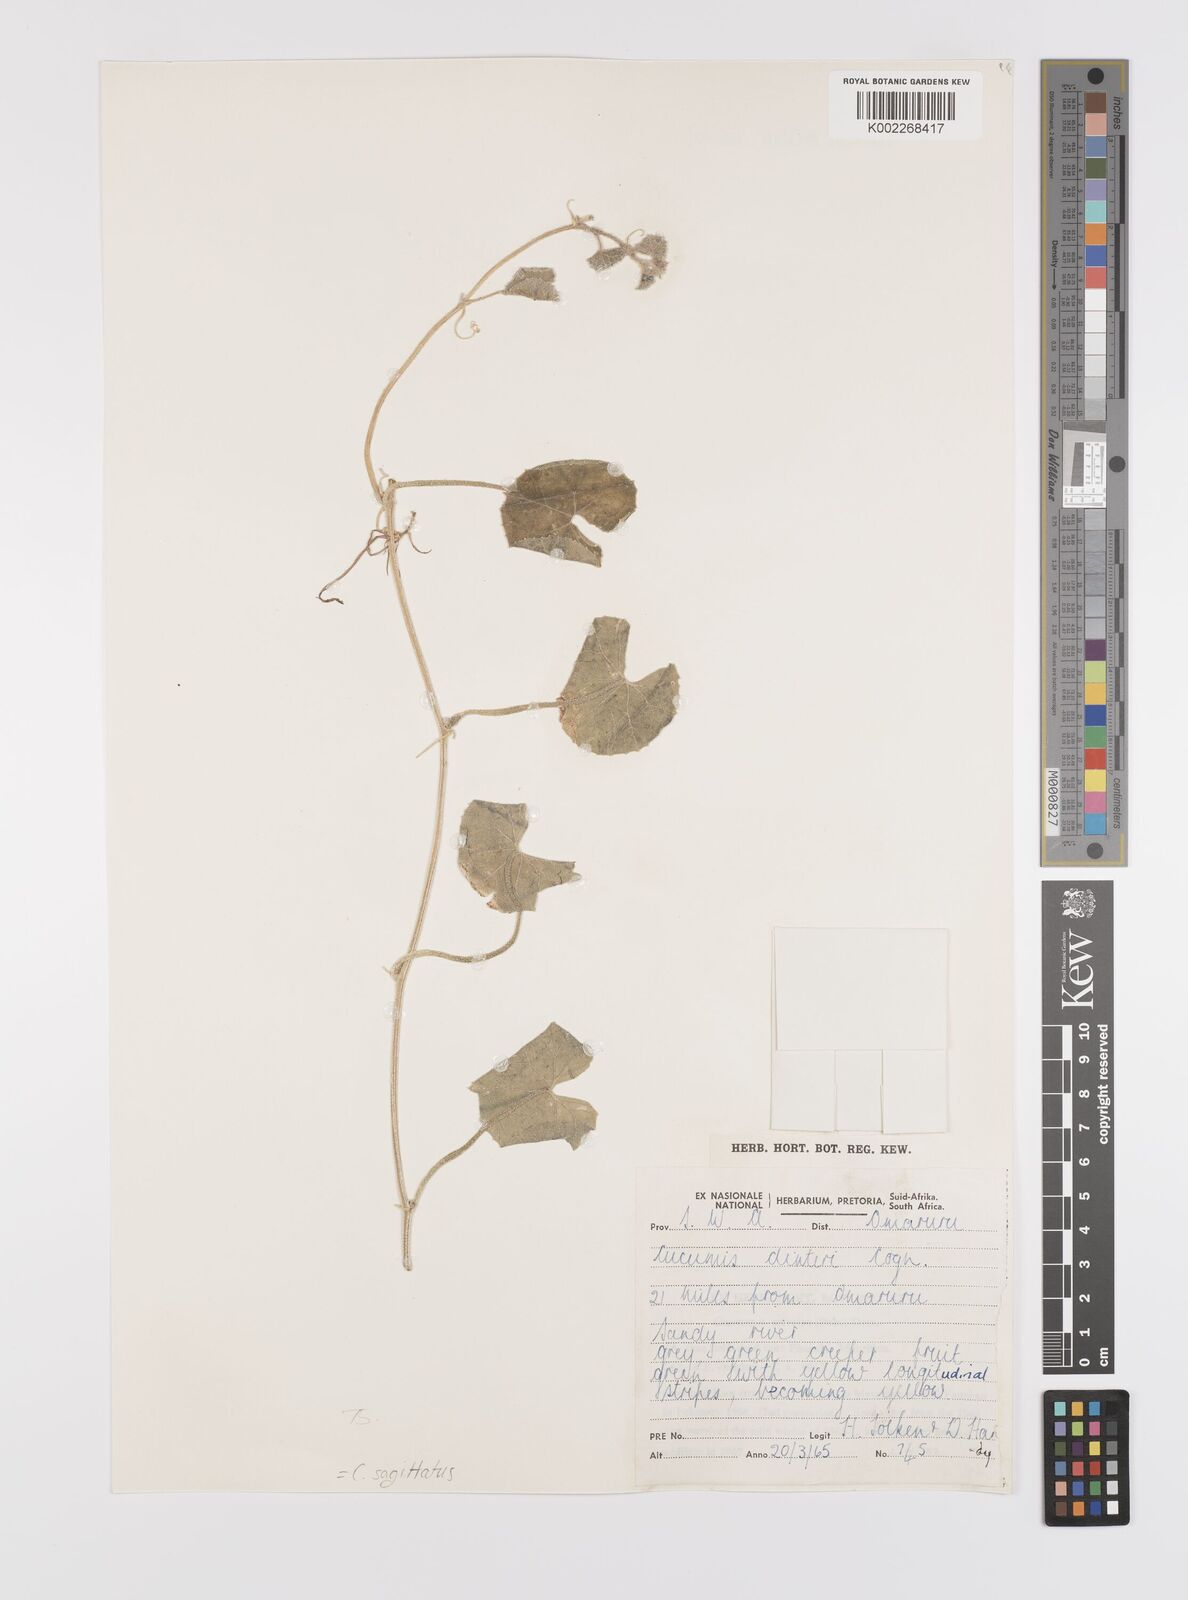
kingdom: Plantae
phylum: Tracheophyta
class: Magnoliopsida
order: Cucurbitales
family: Cucurbitaceae
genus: Cucumis
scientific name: Cucumis sagittatus
